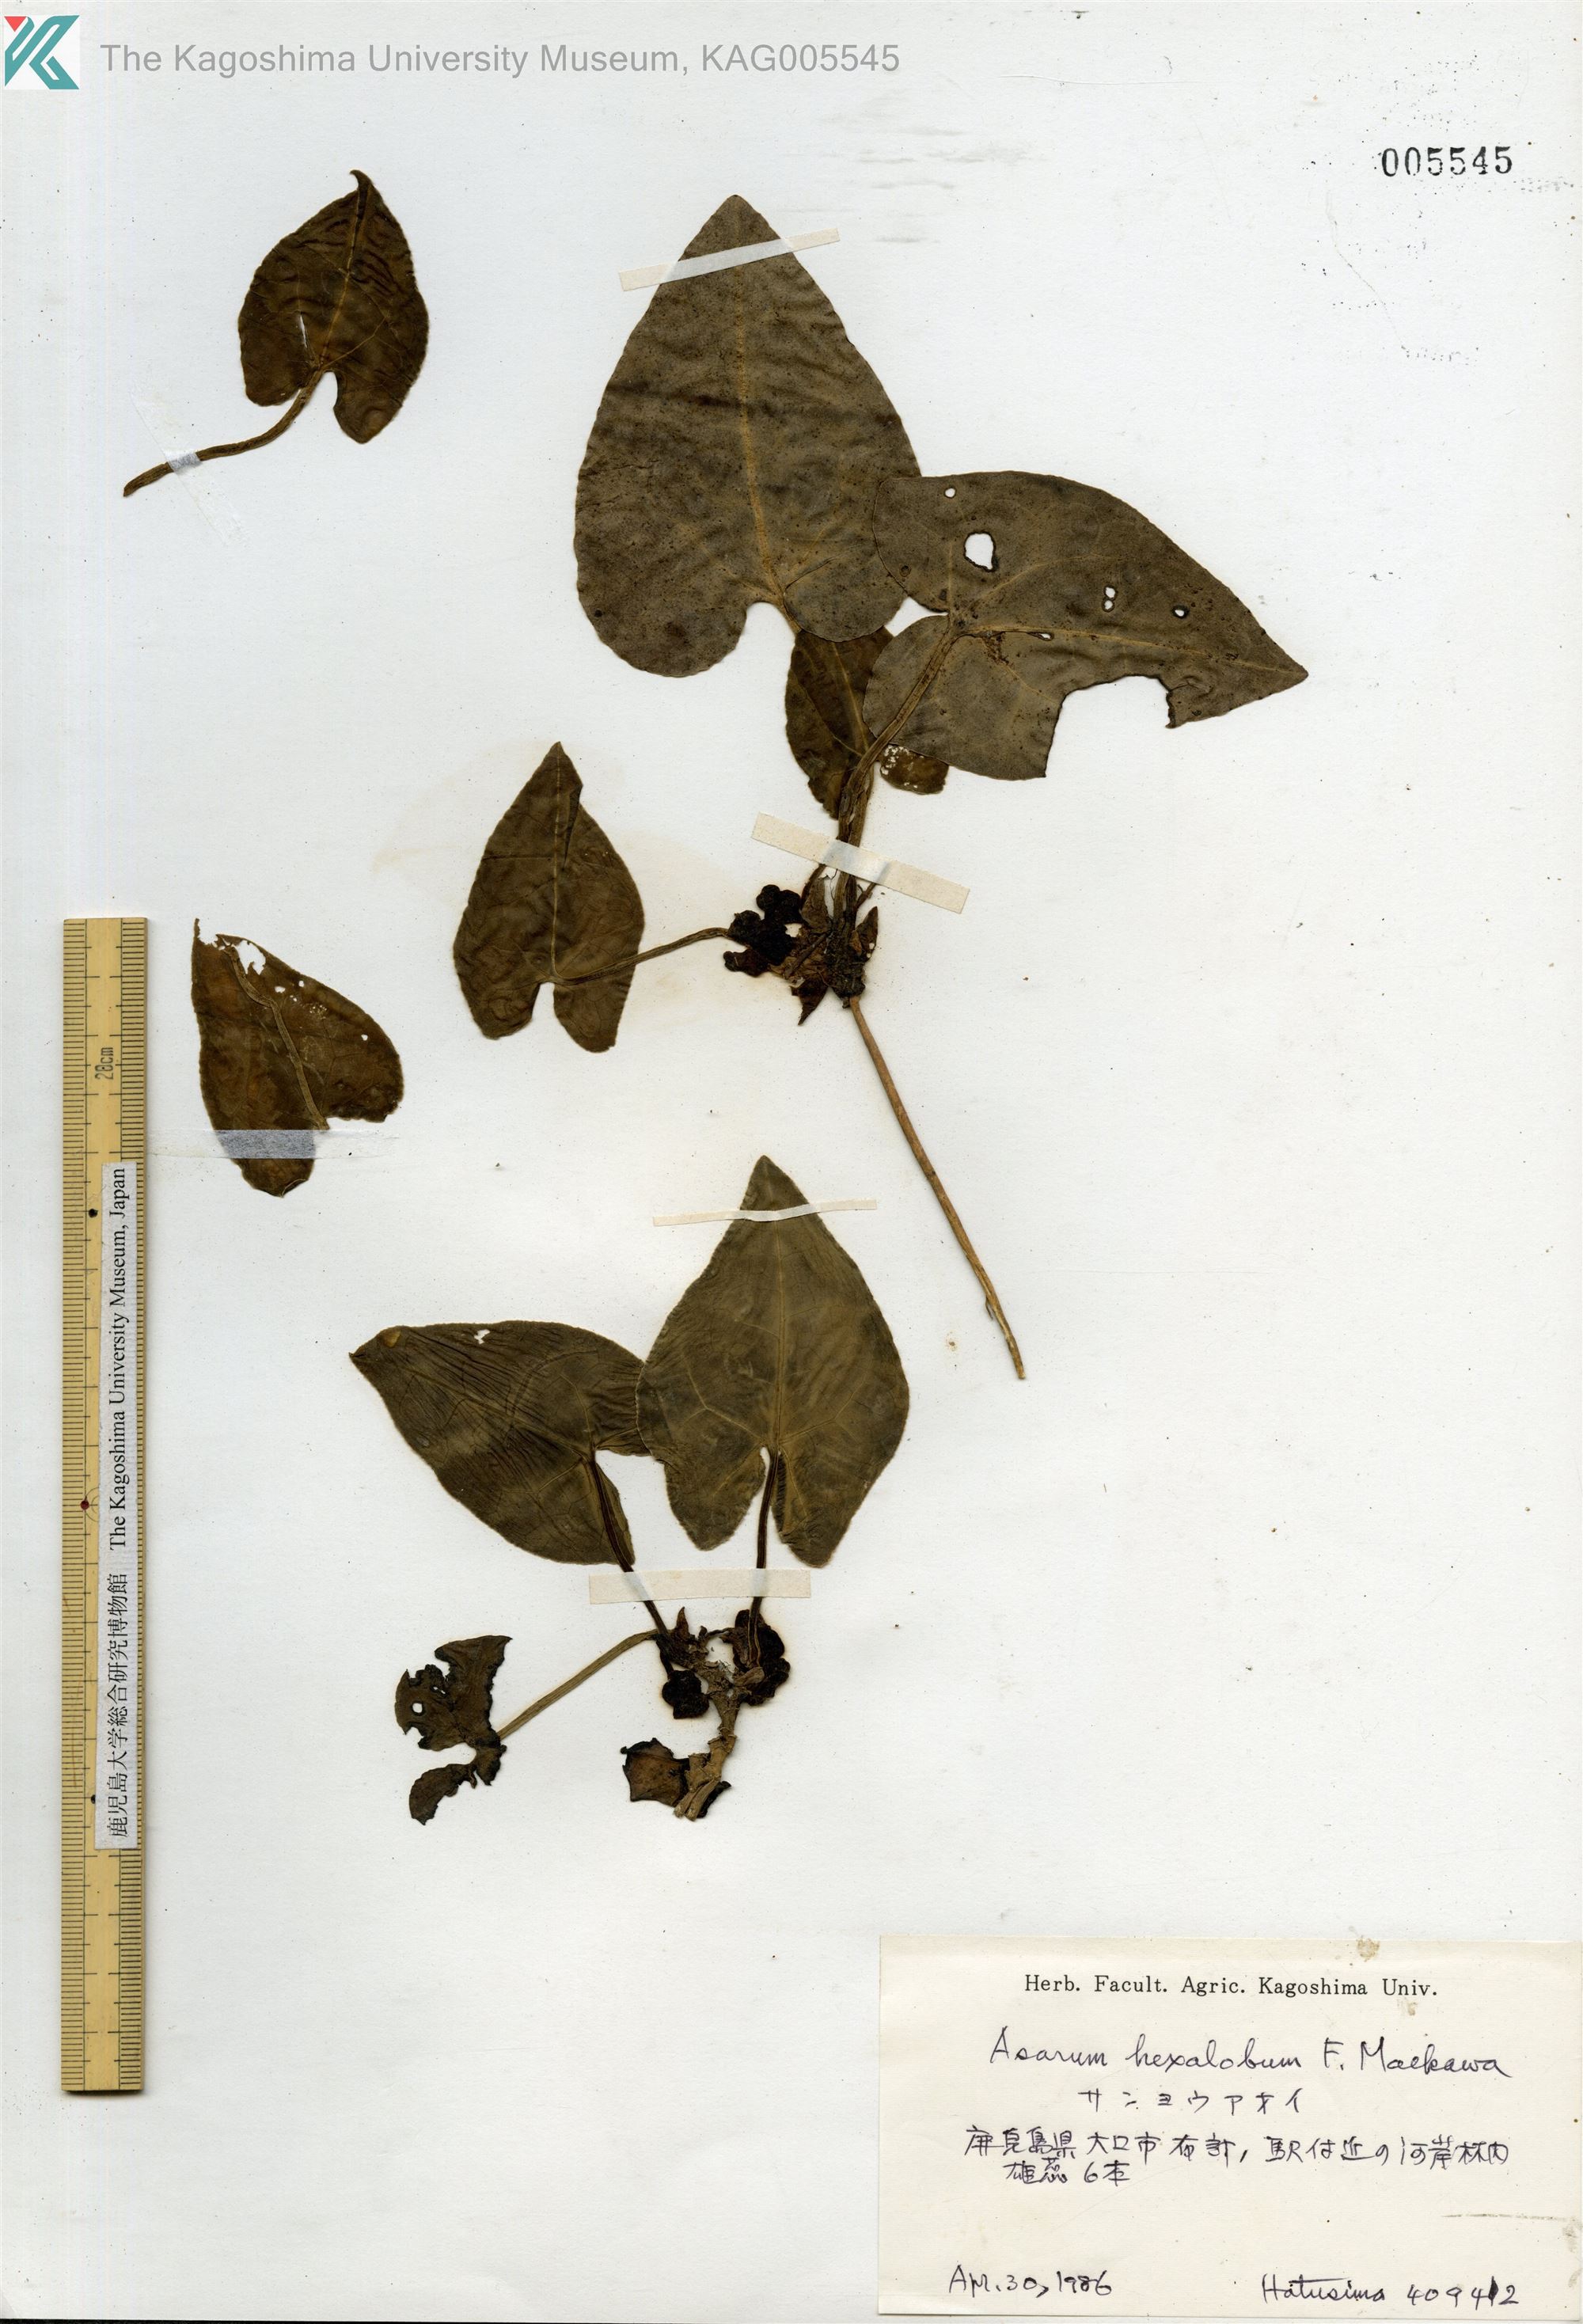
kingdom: Plantae
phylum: Tracheophyta
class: Magnoliopsida
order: Piperales
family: Aristolochiaceae
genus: Asarum
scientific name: Asarum hexalobum
